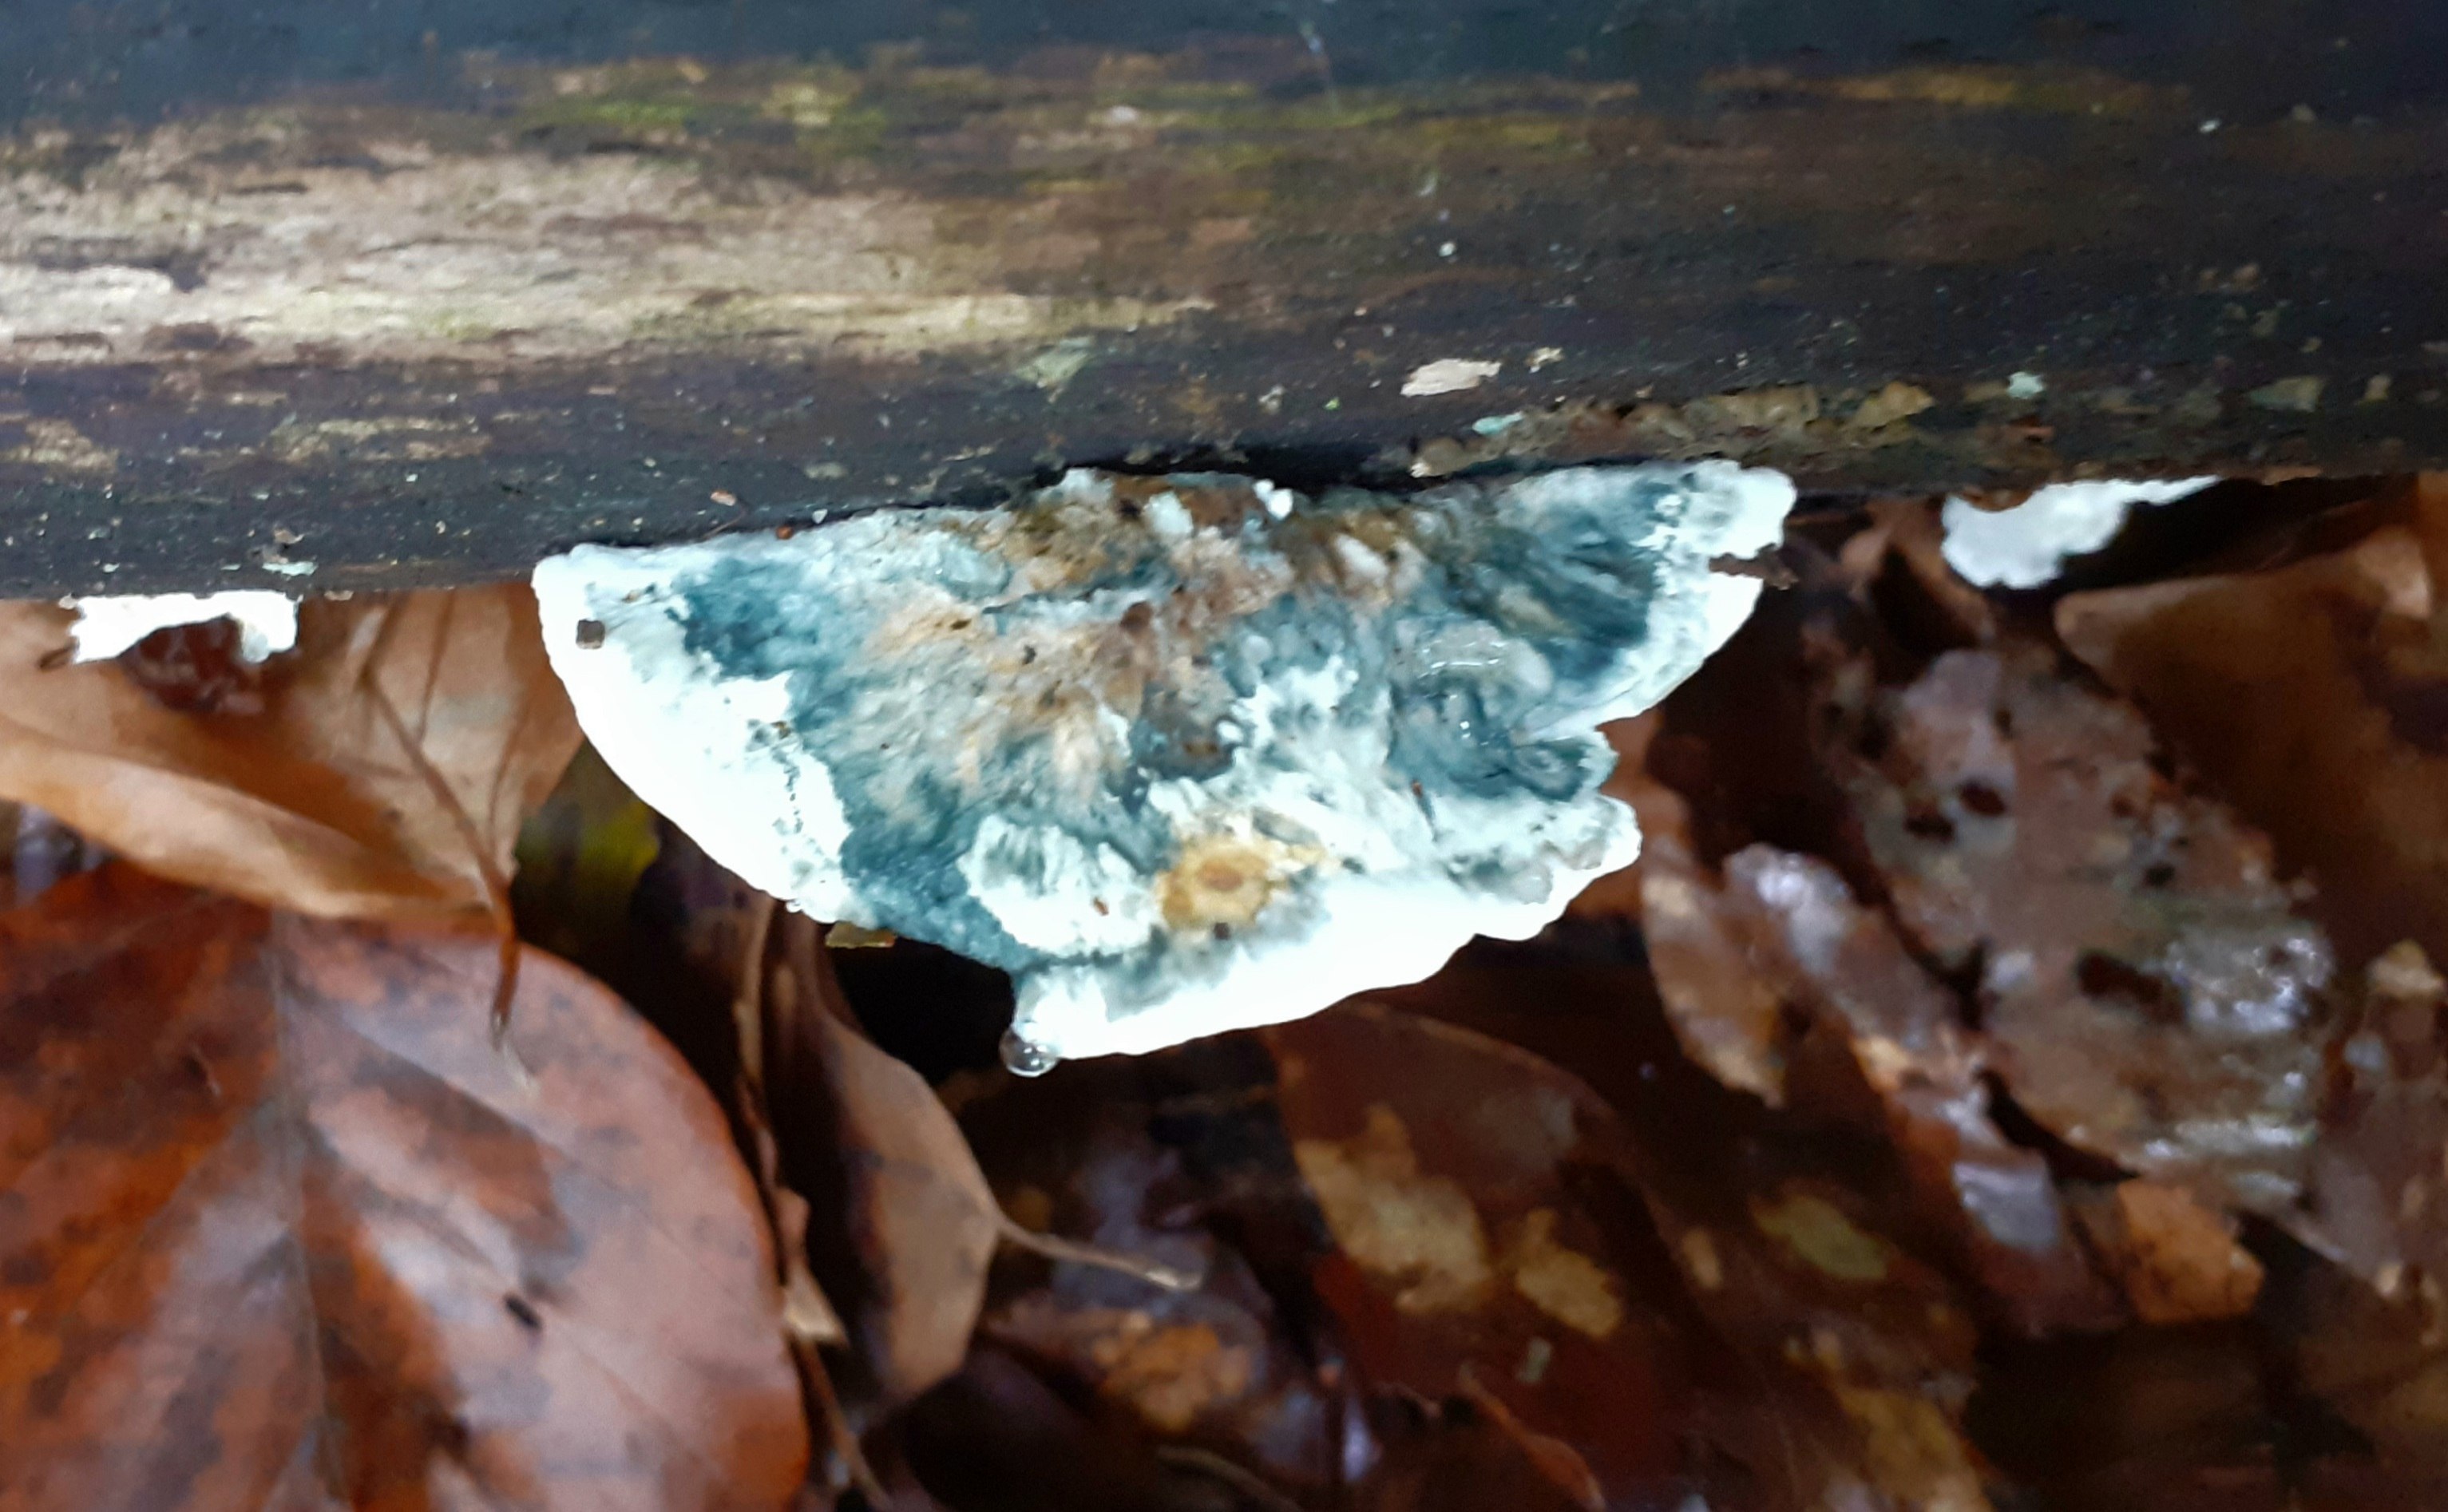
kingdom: Fungi
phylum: Basidiomycota
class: Agaricomycetes
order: Polyporales
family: Polyporaceae
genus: Cyanosporus
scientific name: Cyanosporus alni
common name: blegblå kødporesvamp
